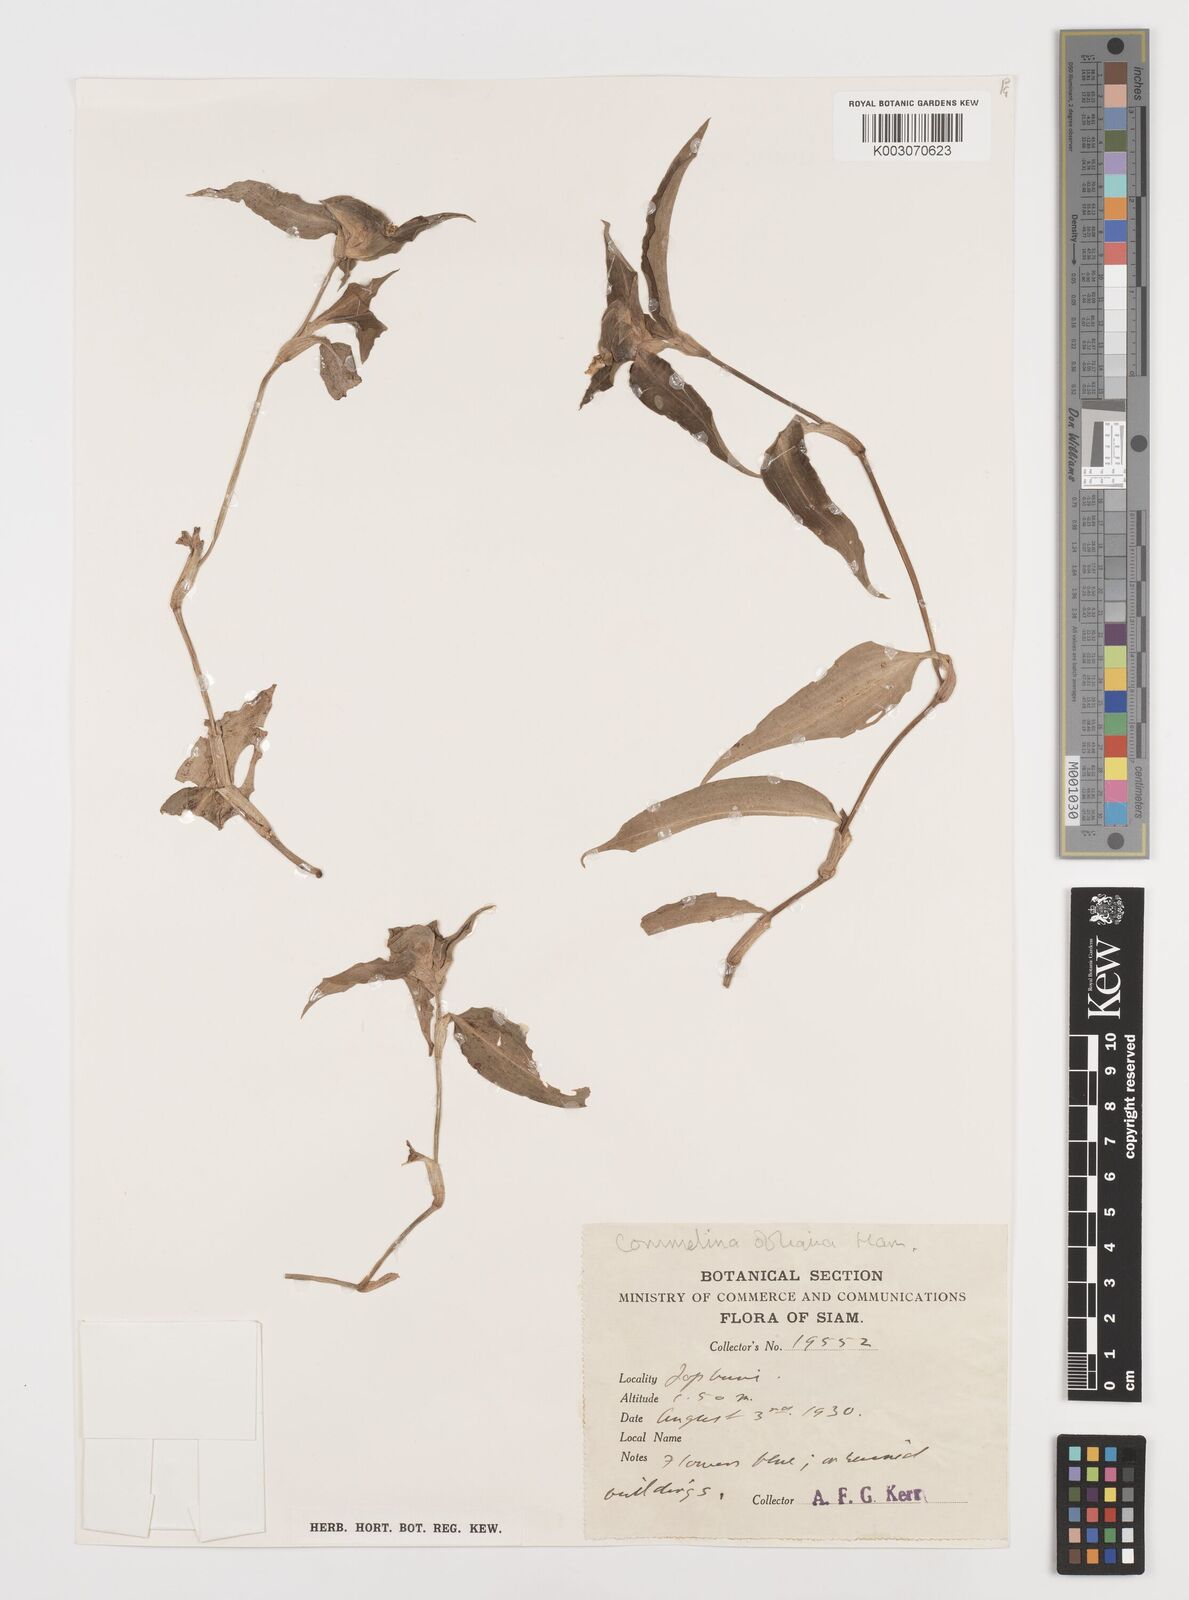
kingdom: Plantae
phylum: Tracheophyta
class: Liliopsida
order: Commelinales
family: Commelinaceae
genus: Commelina
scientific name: Commelina paludosa
